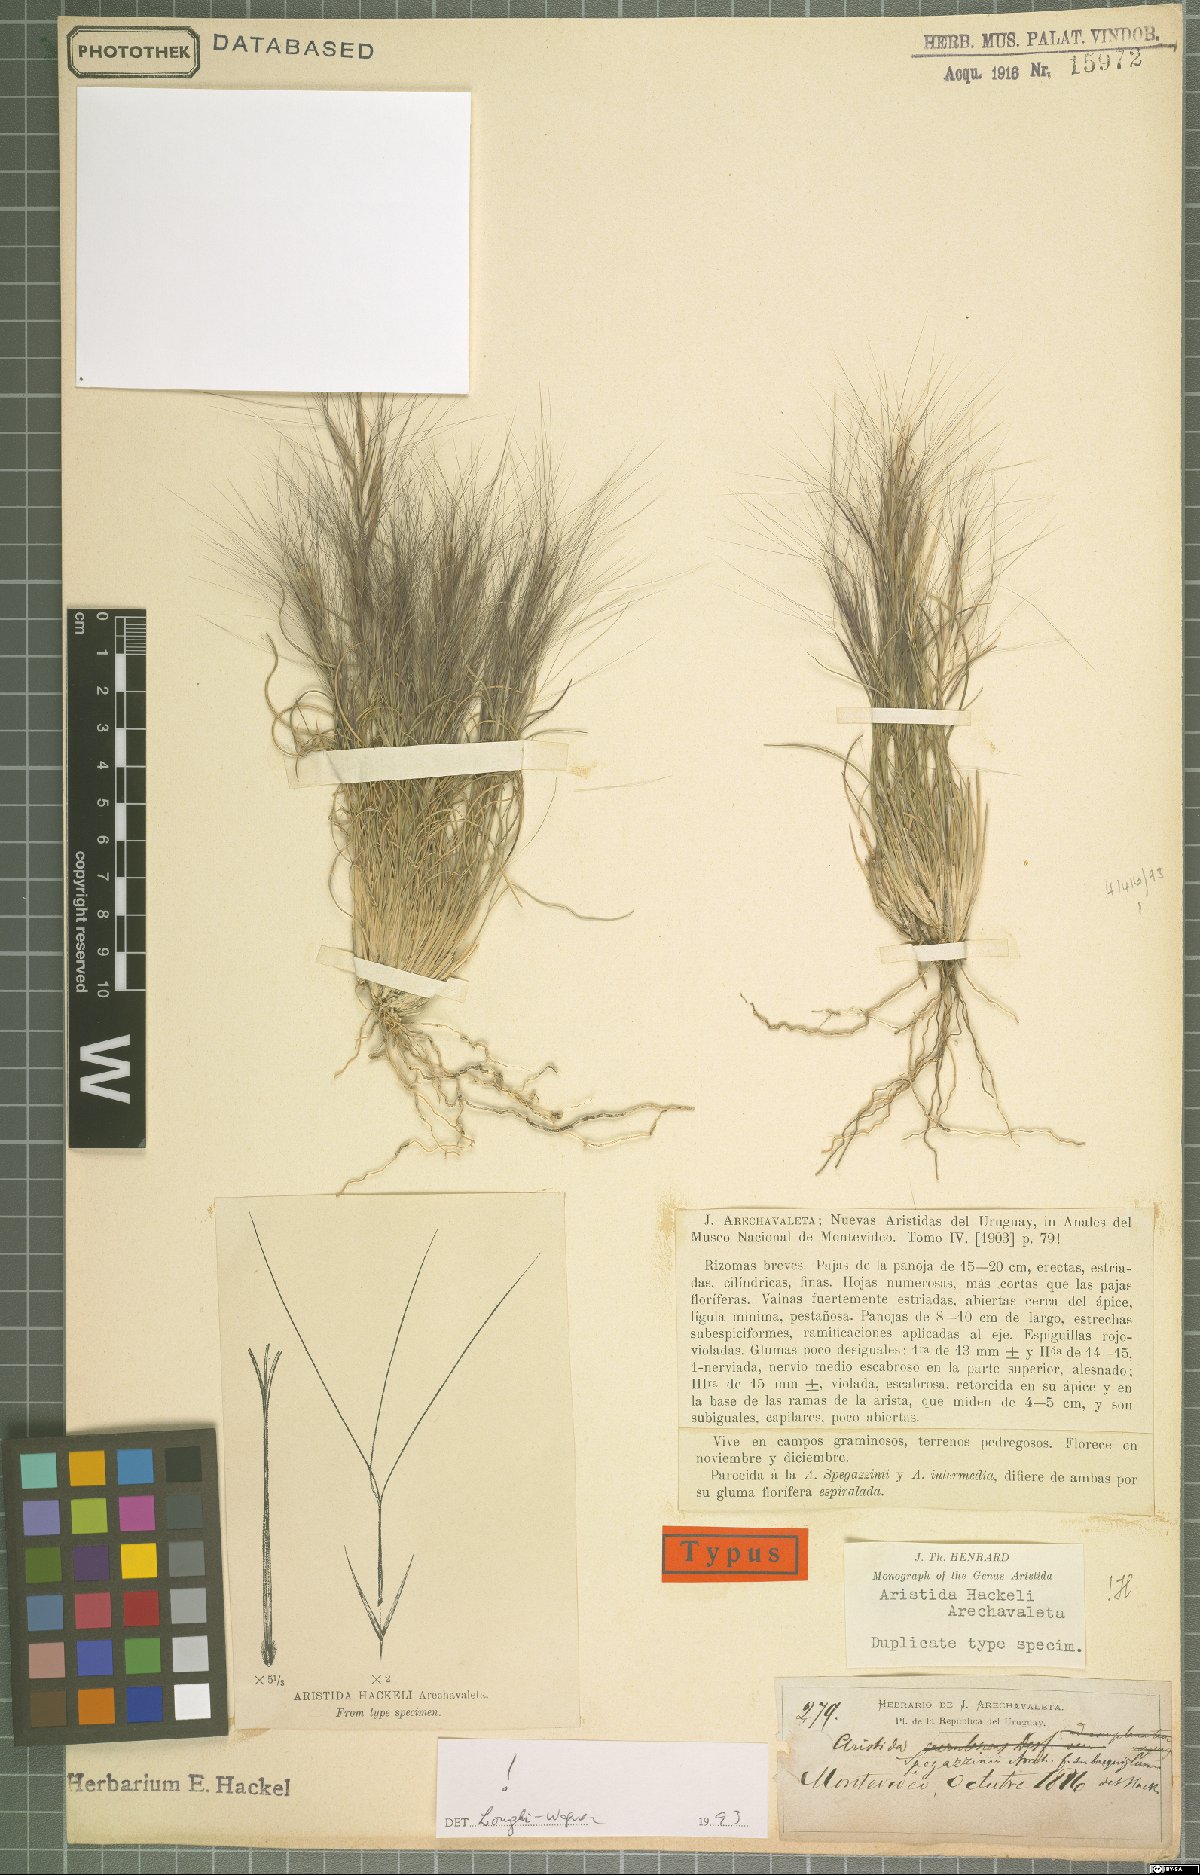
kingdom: Plantae
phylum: Tracheophyta
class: Liliopsida
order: Poales
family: Poaceae
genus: Aristida
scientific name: Aristida hackelii
